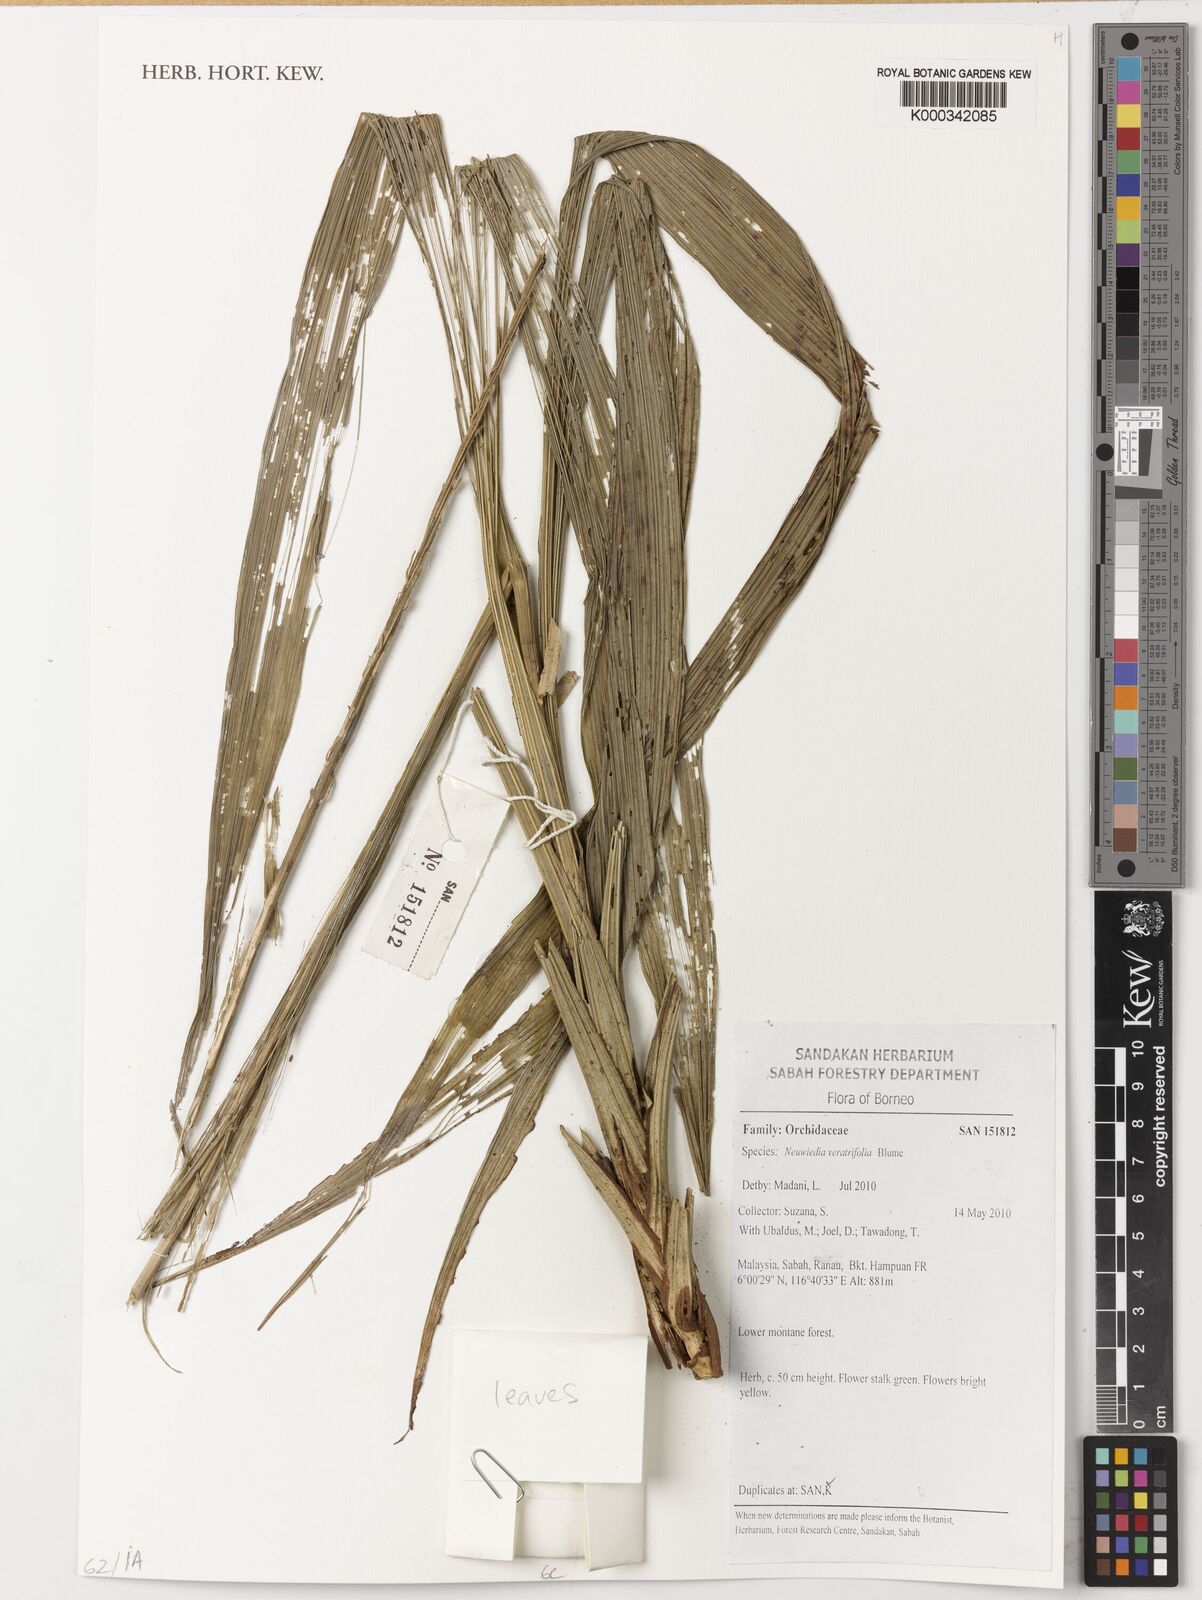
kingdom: Plantae
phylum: Tracheophyta
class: Liliopsida
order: Asparagales
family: Orchidaceae
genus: Neuwiedia
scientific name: Neuwiedia veratrifolia
